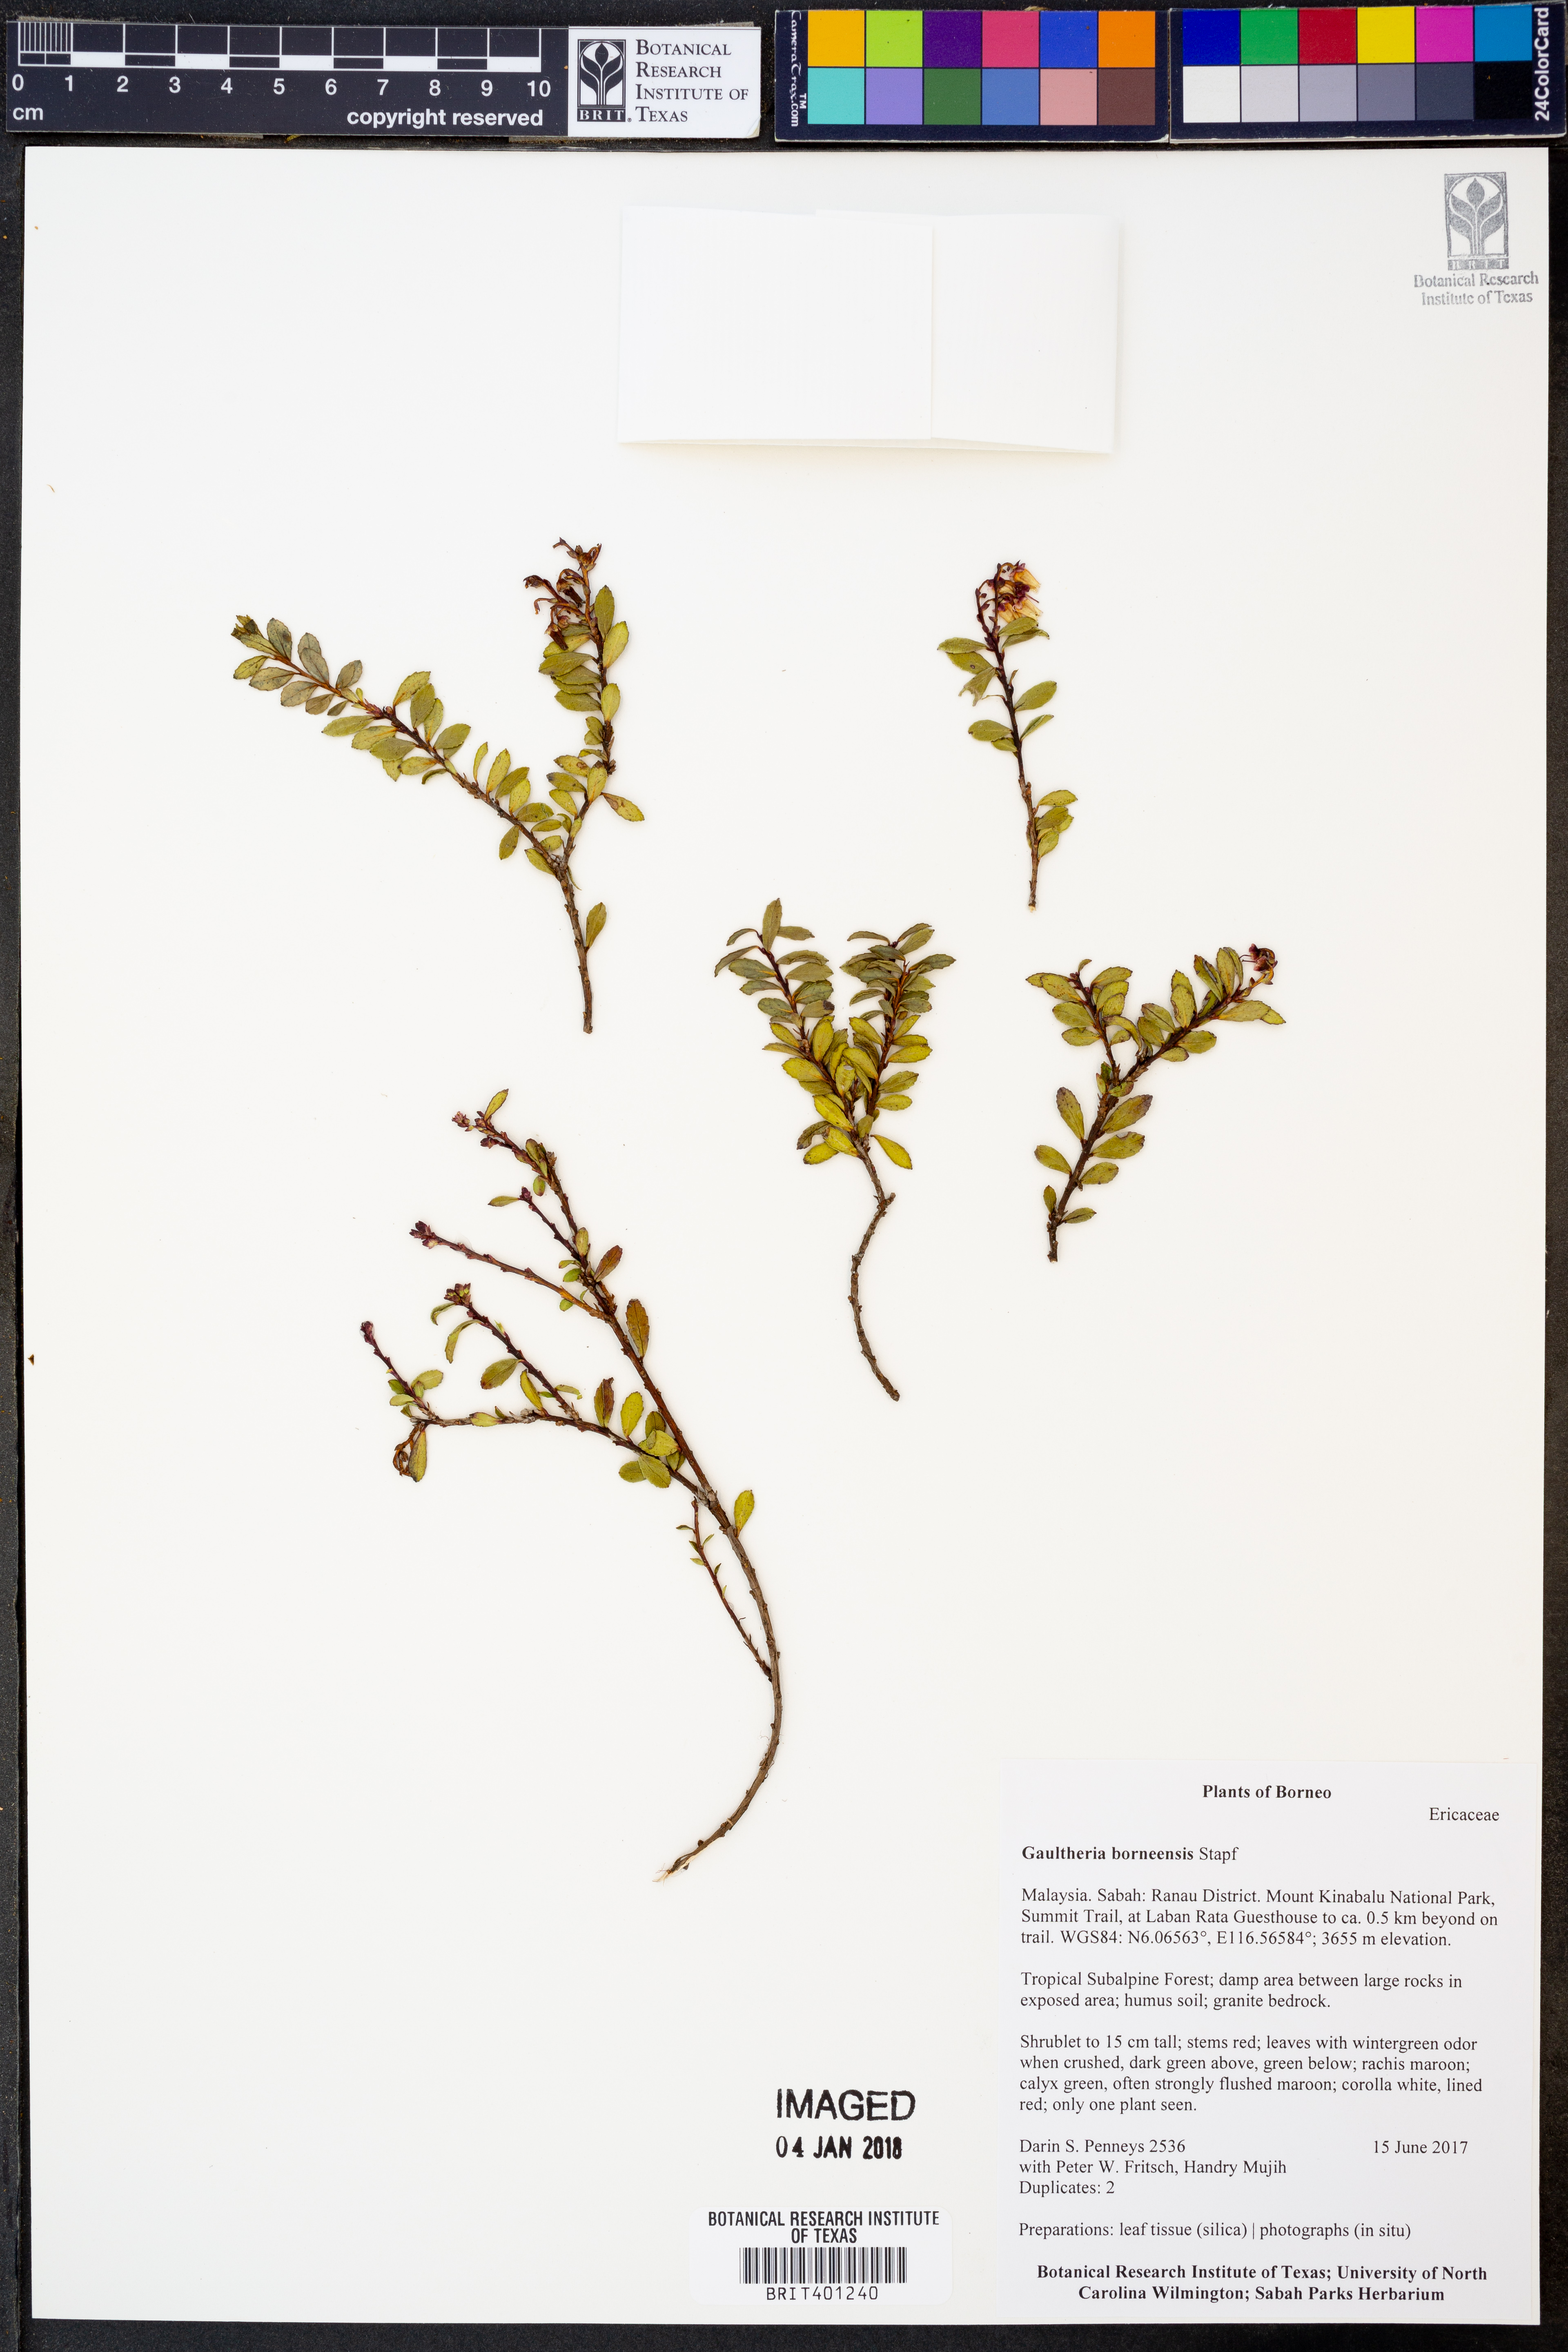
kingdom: Plantae
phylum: Tracheophyta
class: Magnoliopsida
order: Ericales
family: Ericaceae
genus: Gaultheria
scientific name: Gaultheria borneensis
